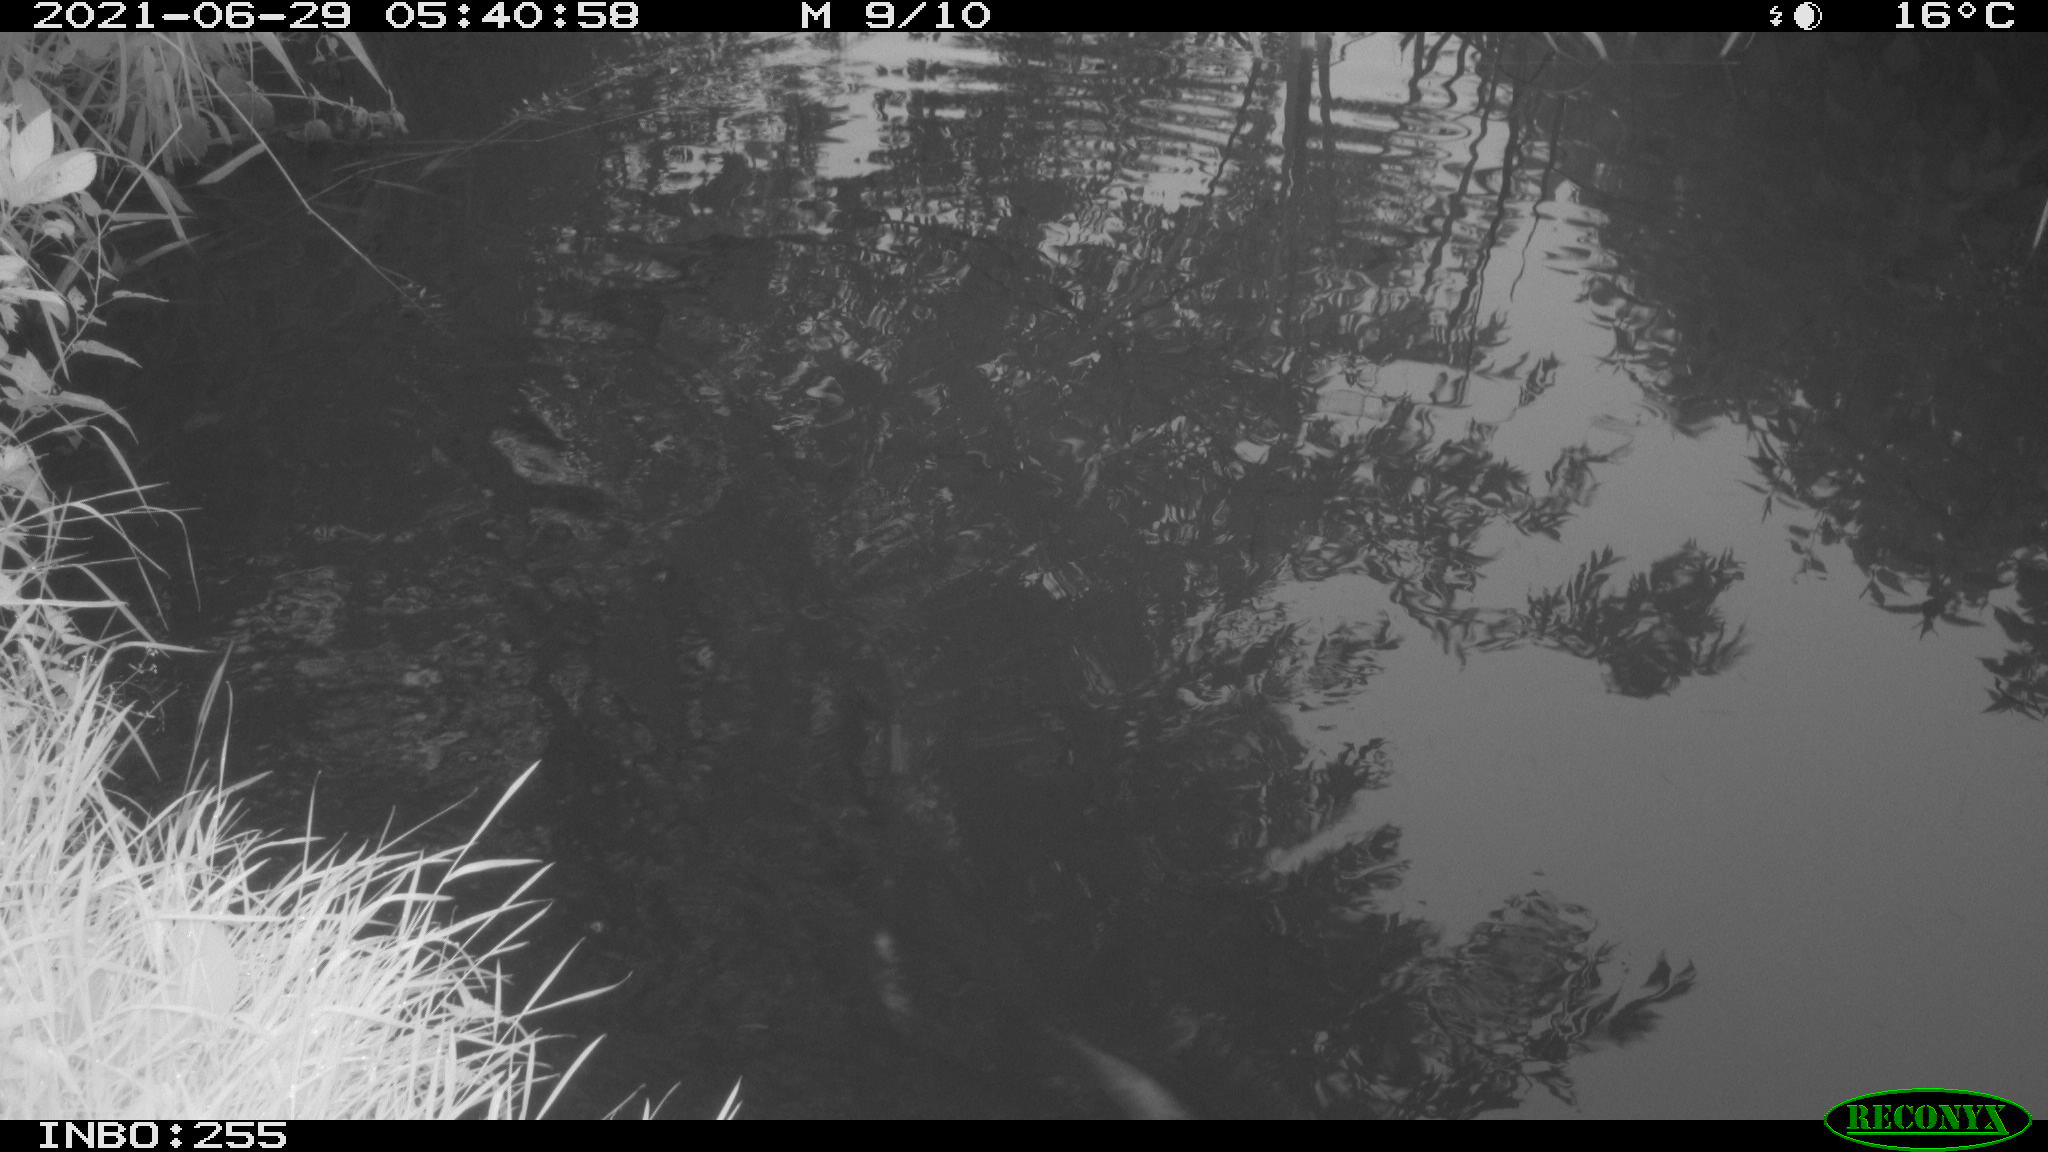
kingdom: Animalia
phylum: Chordata
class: Aves
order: Gruiformes
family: Rallidae
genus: Gallinula
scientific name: Gallinula chloropus
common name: Common moorhen
